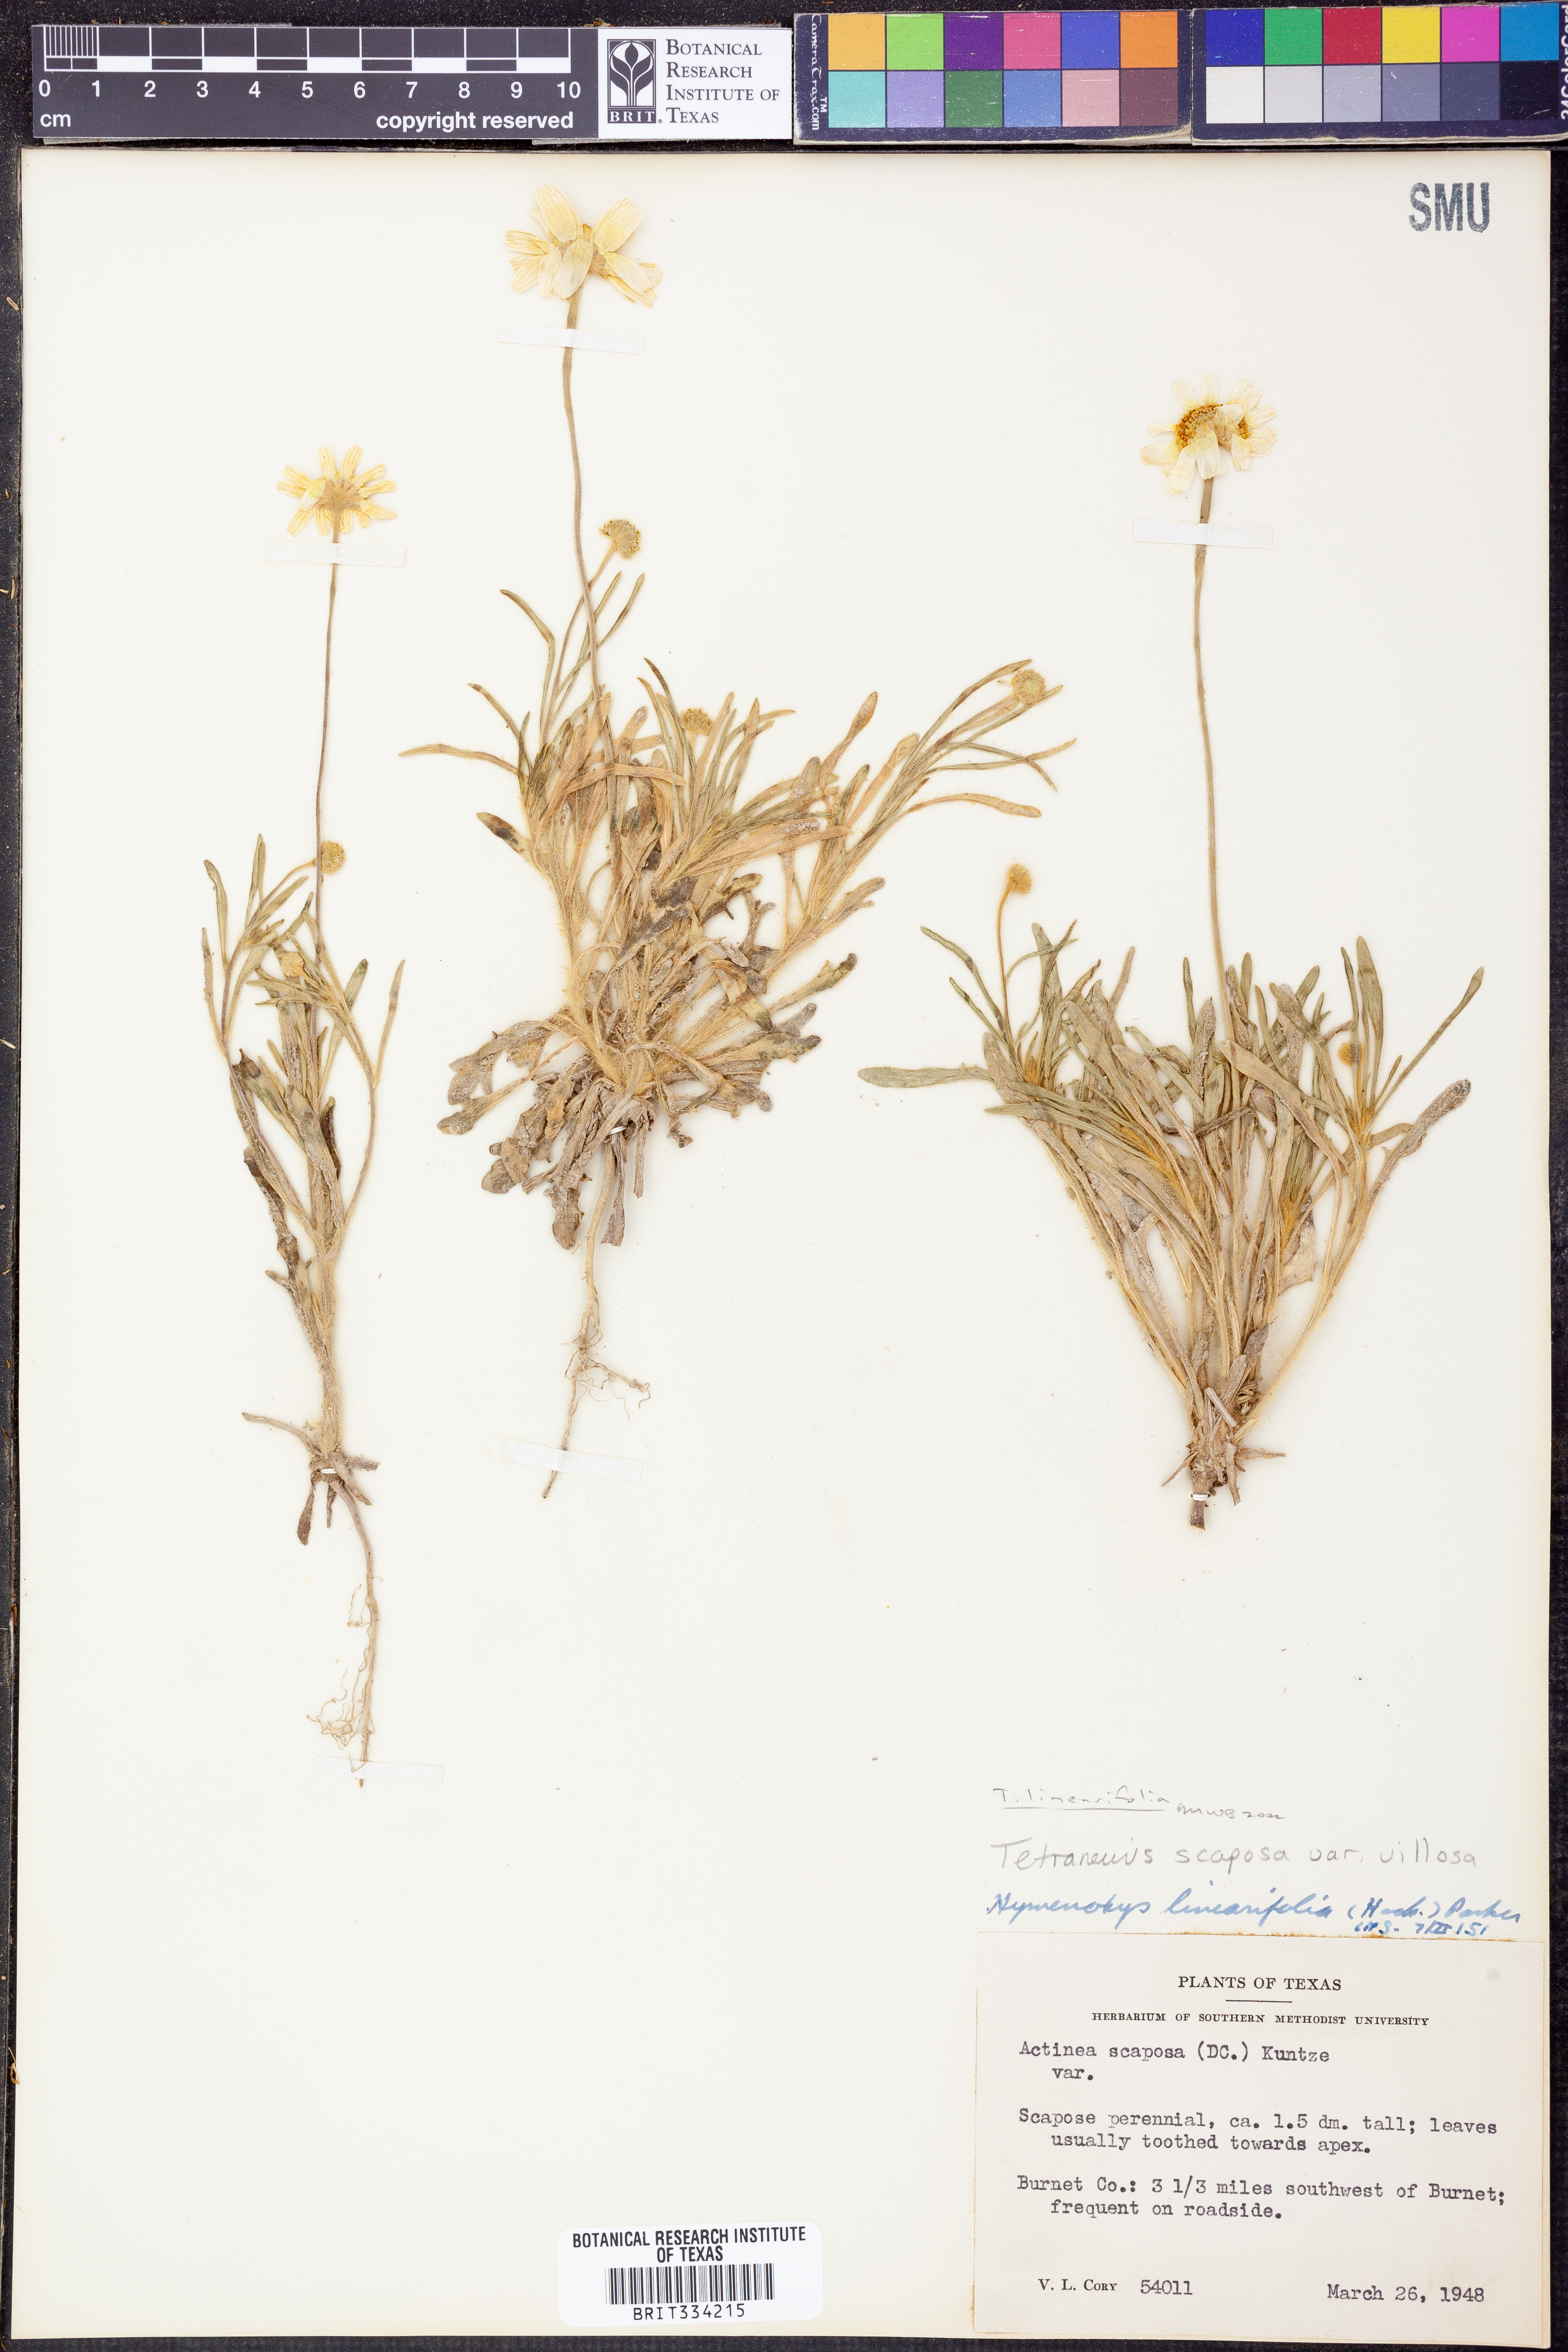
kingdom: Plantae
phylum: Tracheophyta
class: Magnoliopsida
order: Asterales
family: Asteraceae
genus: Tetraneuris
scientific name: Tetraneuris linearifolia
